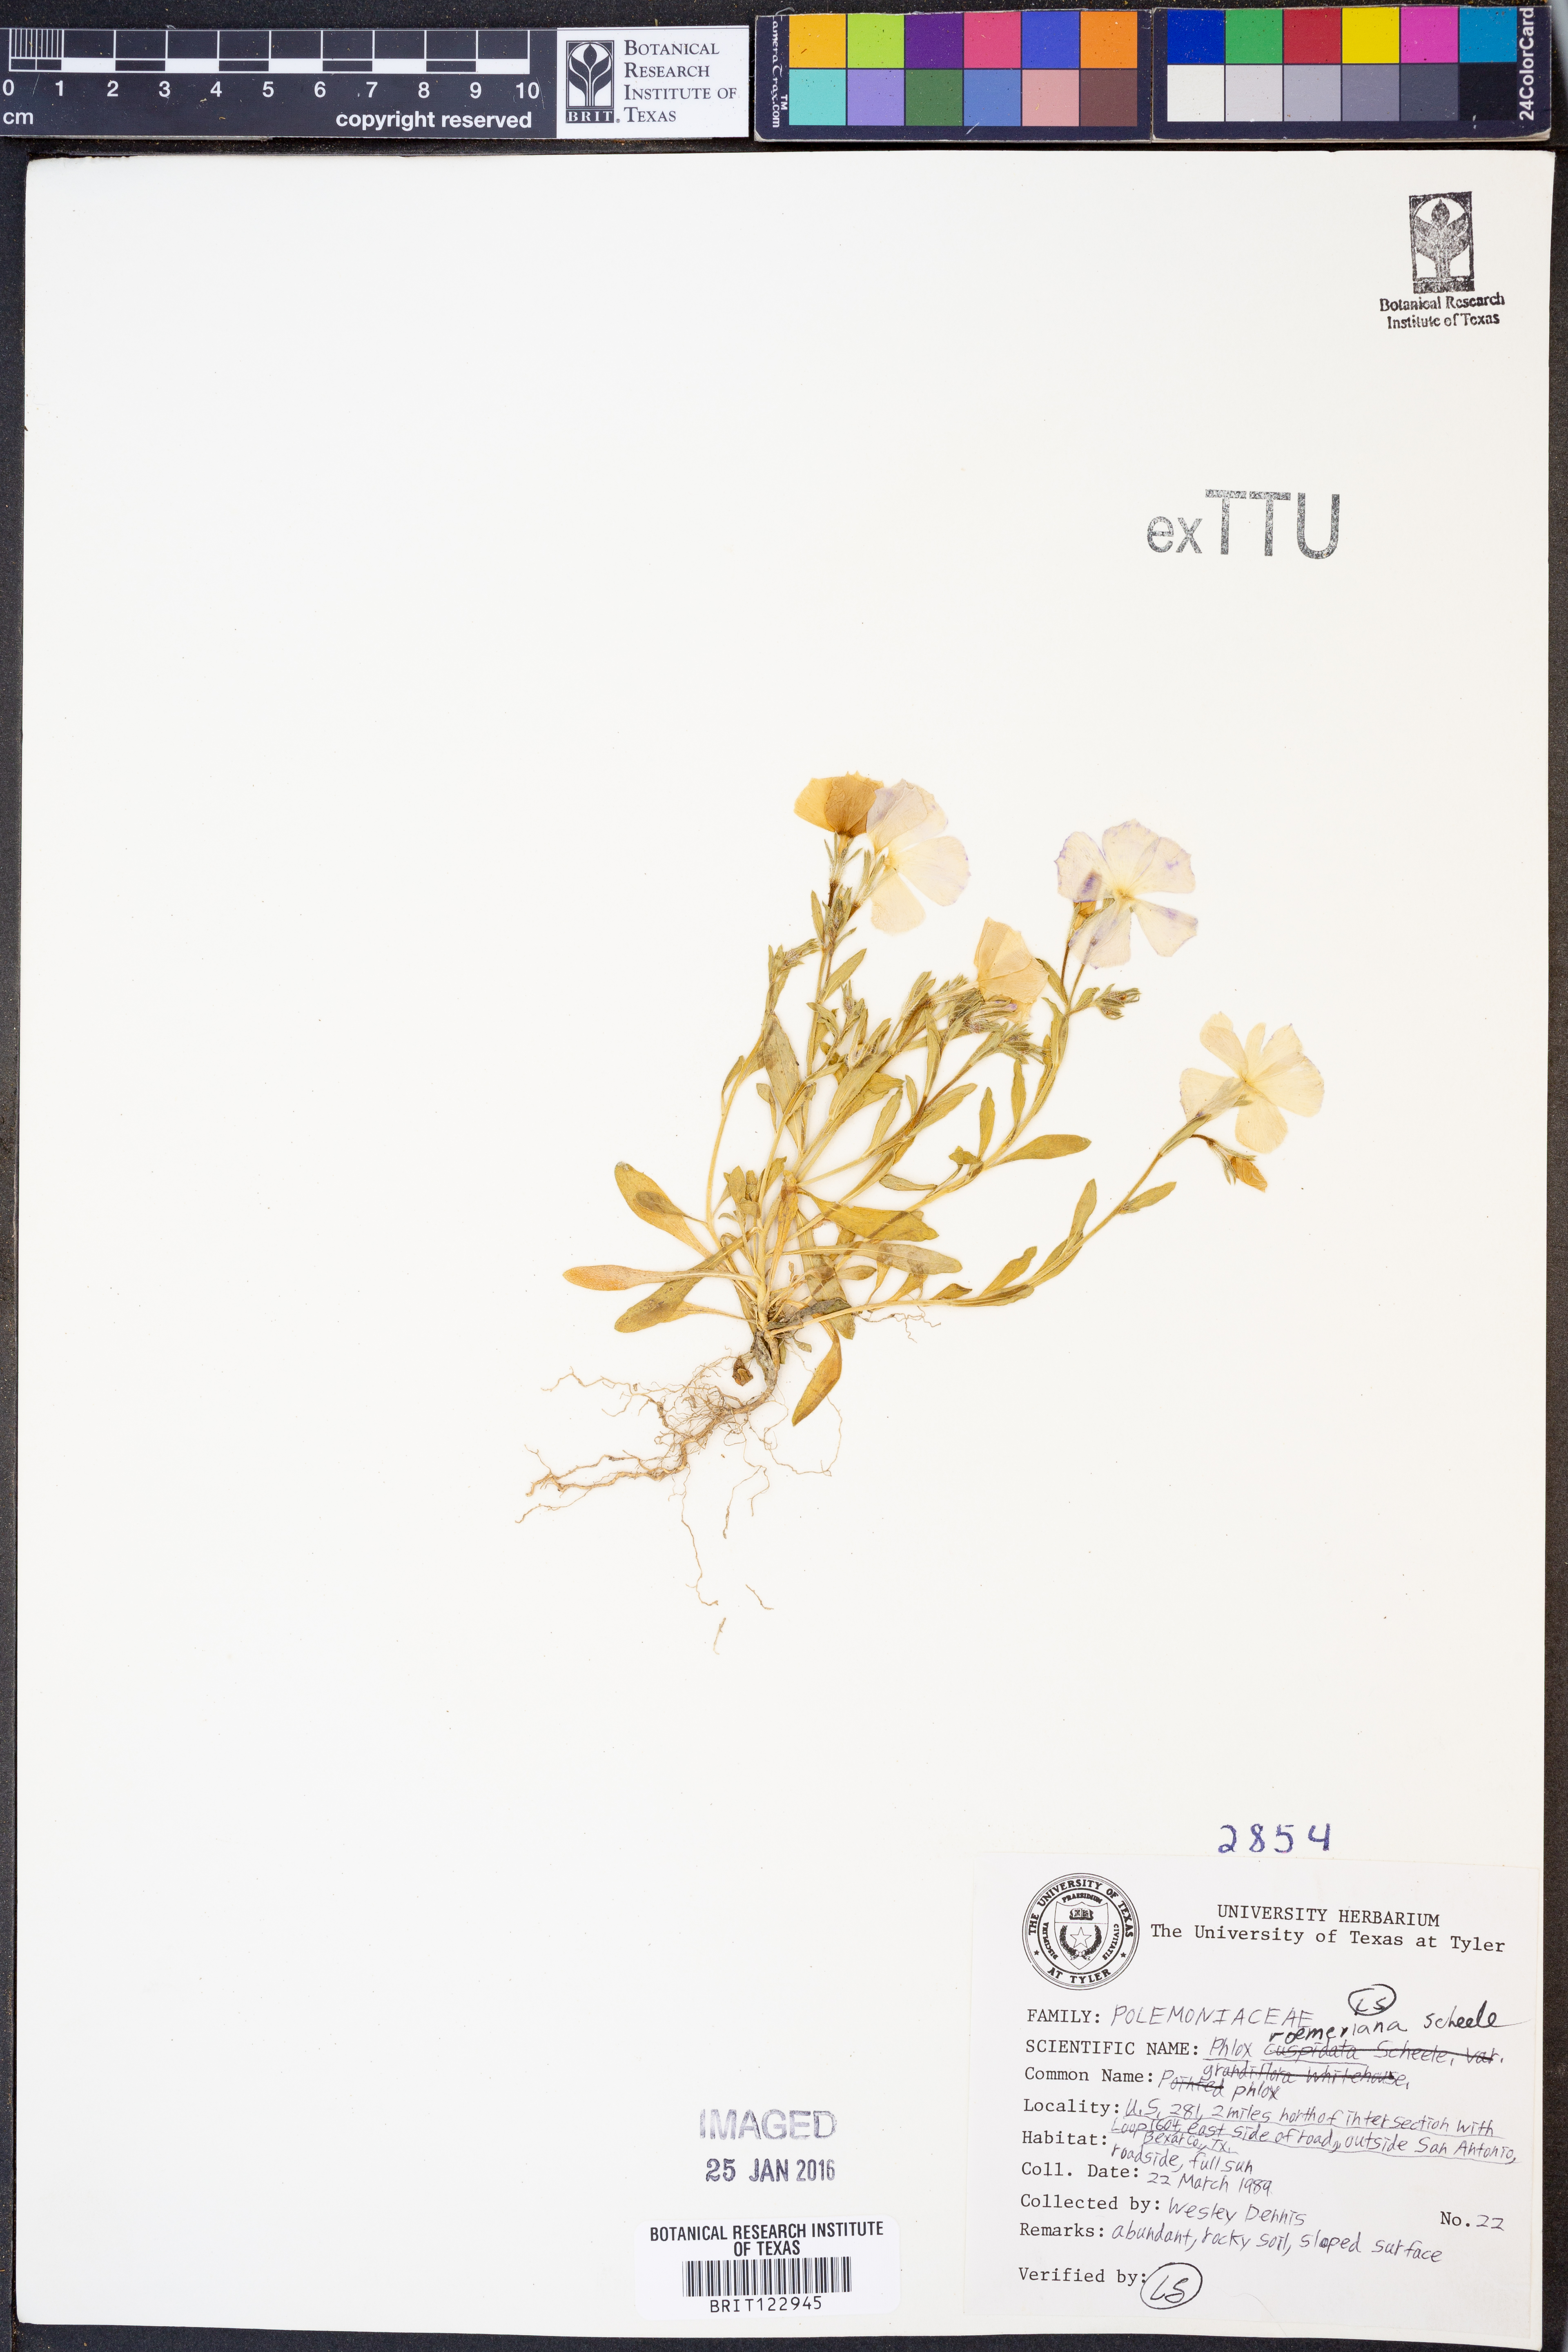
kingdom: Plantae
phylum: Tracheophyta
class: Magnoliopsida
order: Ericales
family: Polemoniaceae
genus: Phlox
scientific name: Phlox roemeriana
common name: Roemer's phlox
